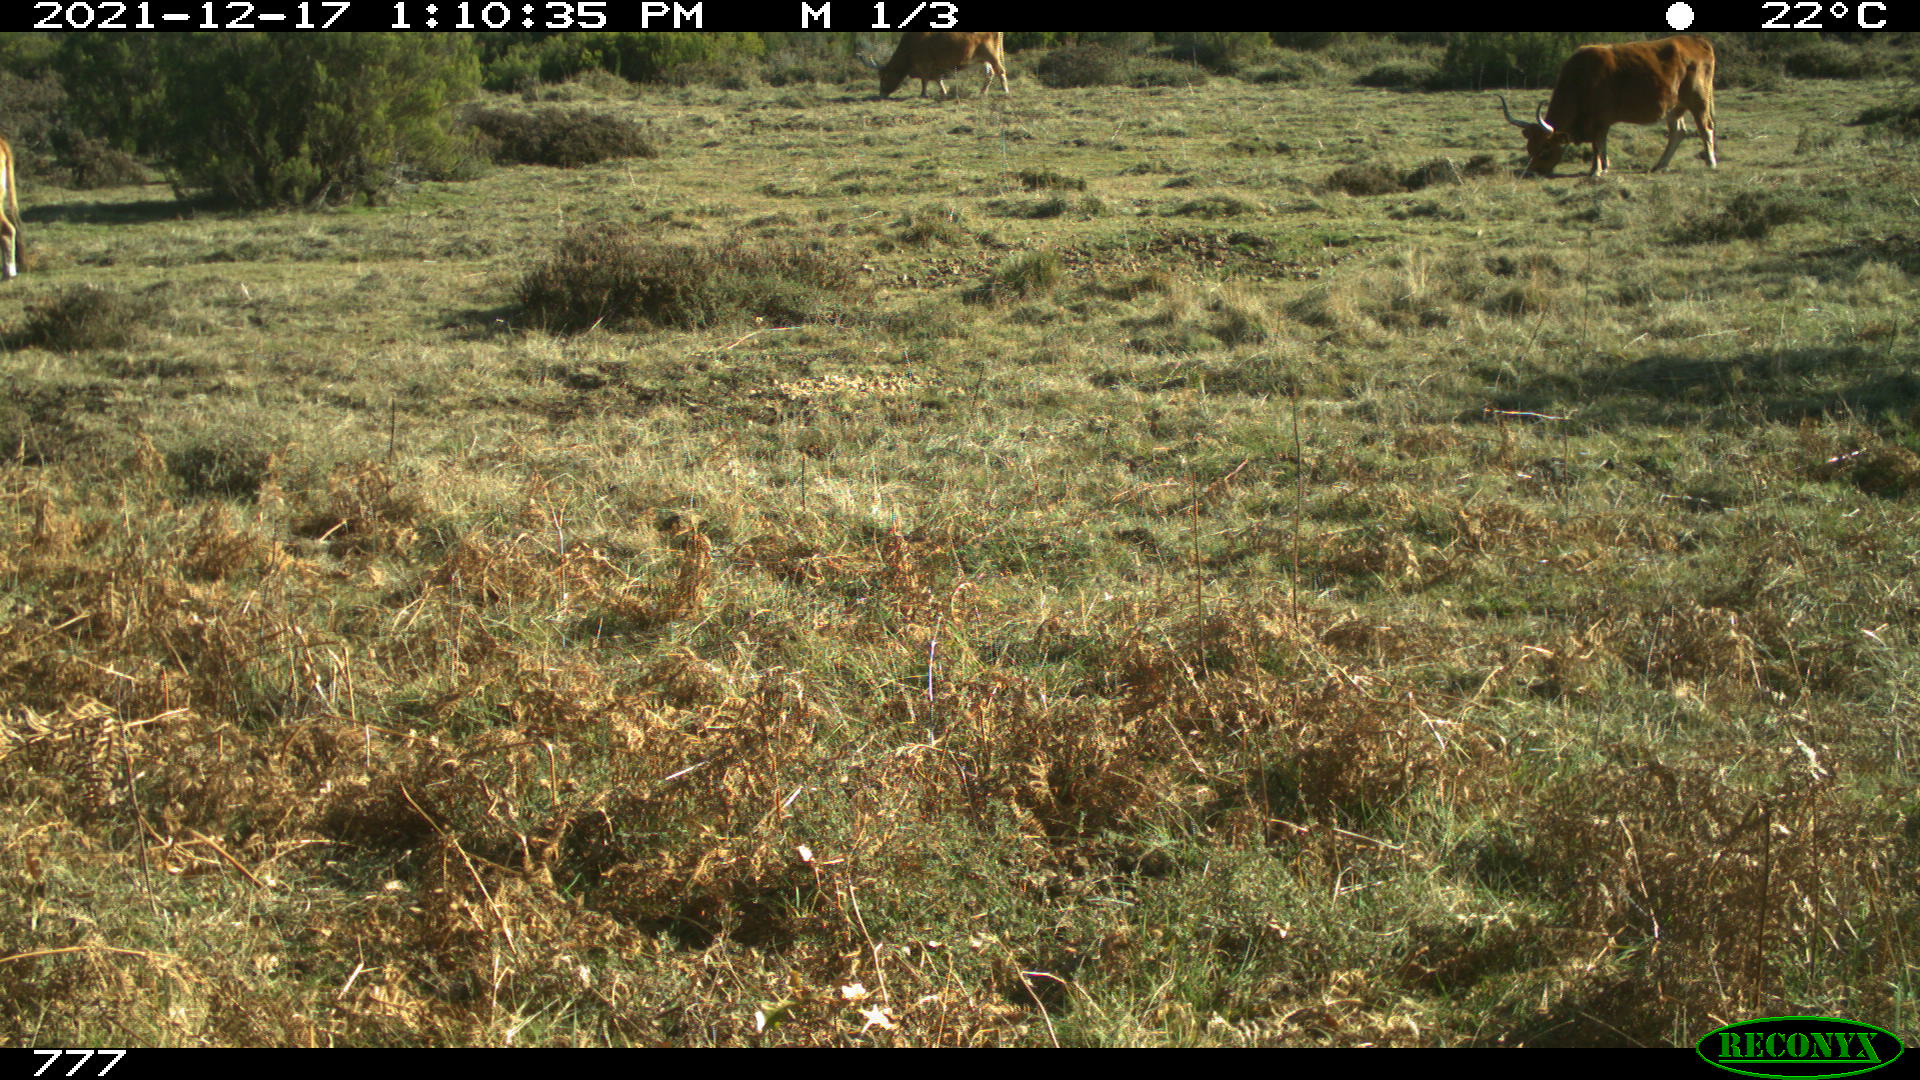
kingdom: Animalia
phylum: Chordata
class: Mammalia
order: Artiodactyla
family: Bovidae
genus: Bos
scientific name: Bos taurus
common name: Domesticated cattle
